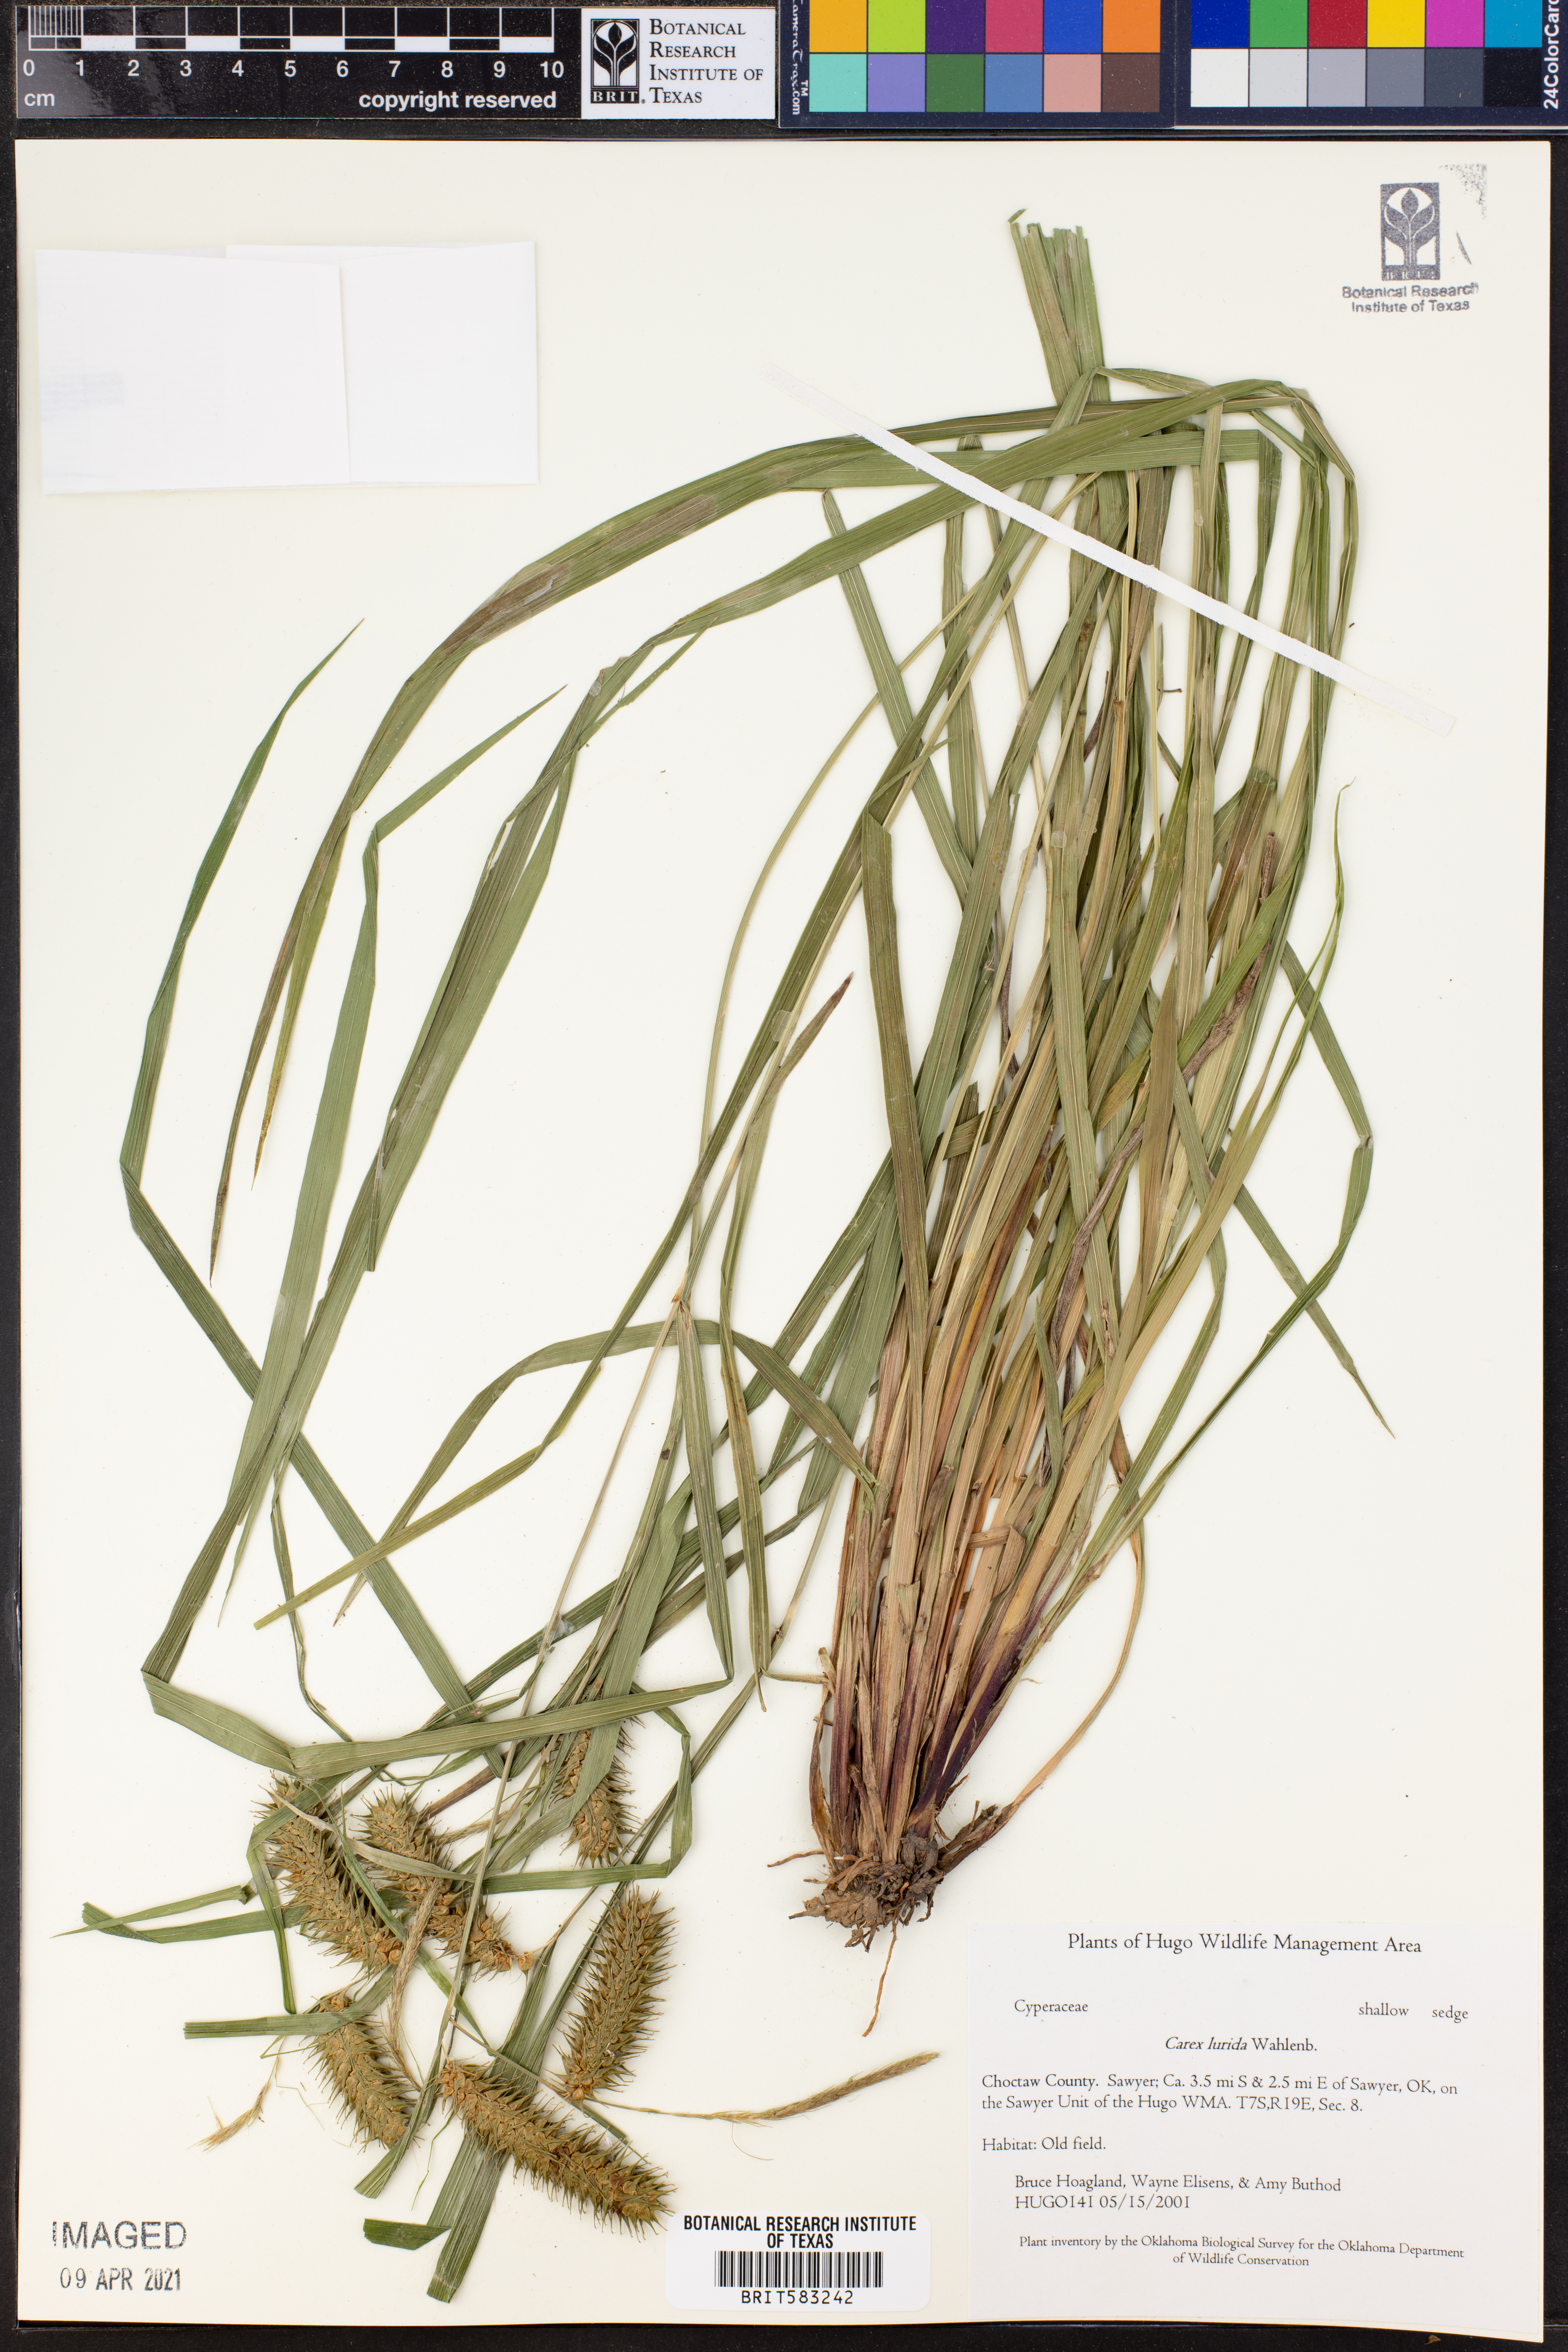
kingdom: Plantae
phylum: Tracheophyta
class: Liliopsida
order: Poales
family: Cyperaceae
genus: Carex
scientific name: Carex lurida
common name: Sallow sedge
